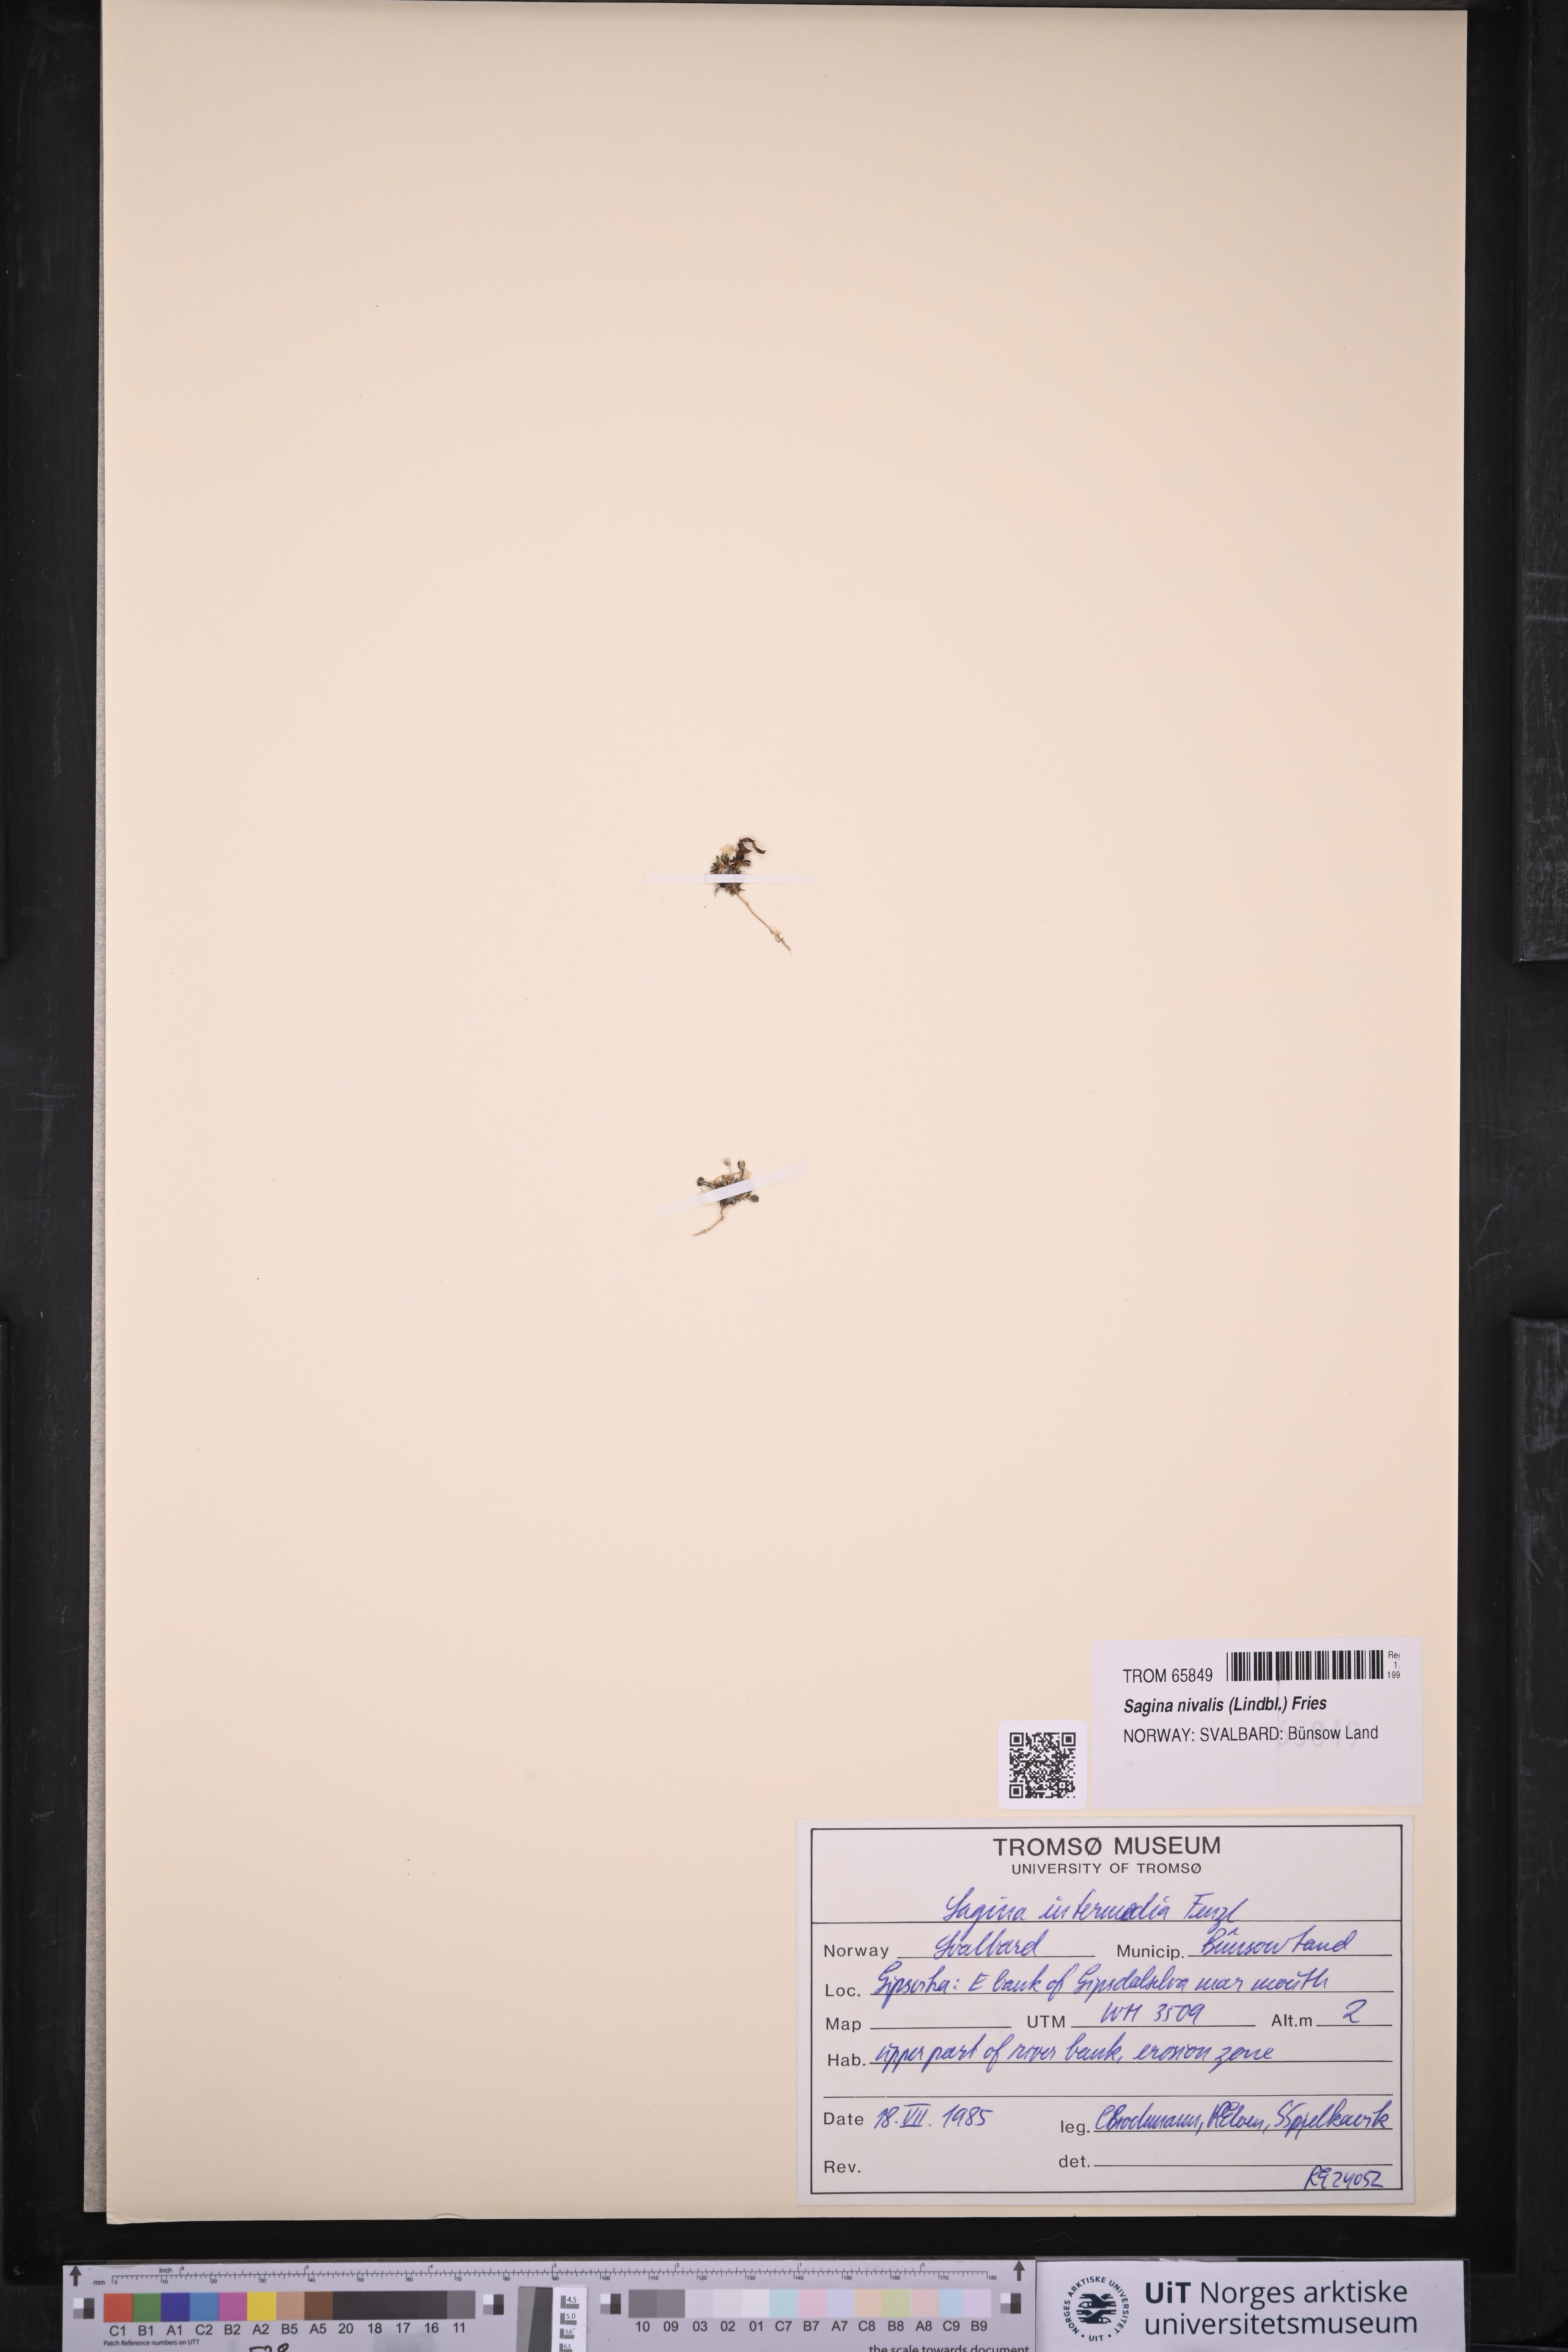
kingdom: Plantae
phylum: Tracheophyta
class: Magnoliopsida
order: Caryophyllales
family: Caryophyllaceae
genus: Sagina
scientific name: Sagina nivalis
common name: Snow pearlwort
